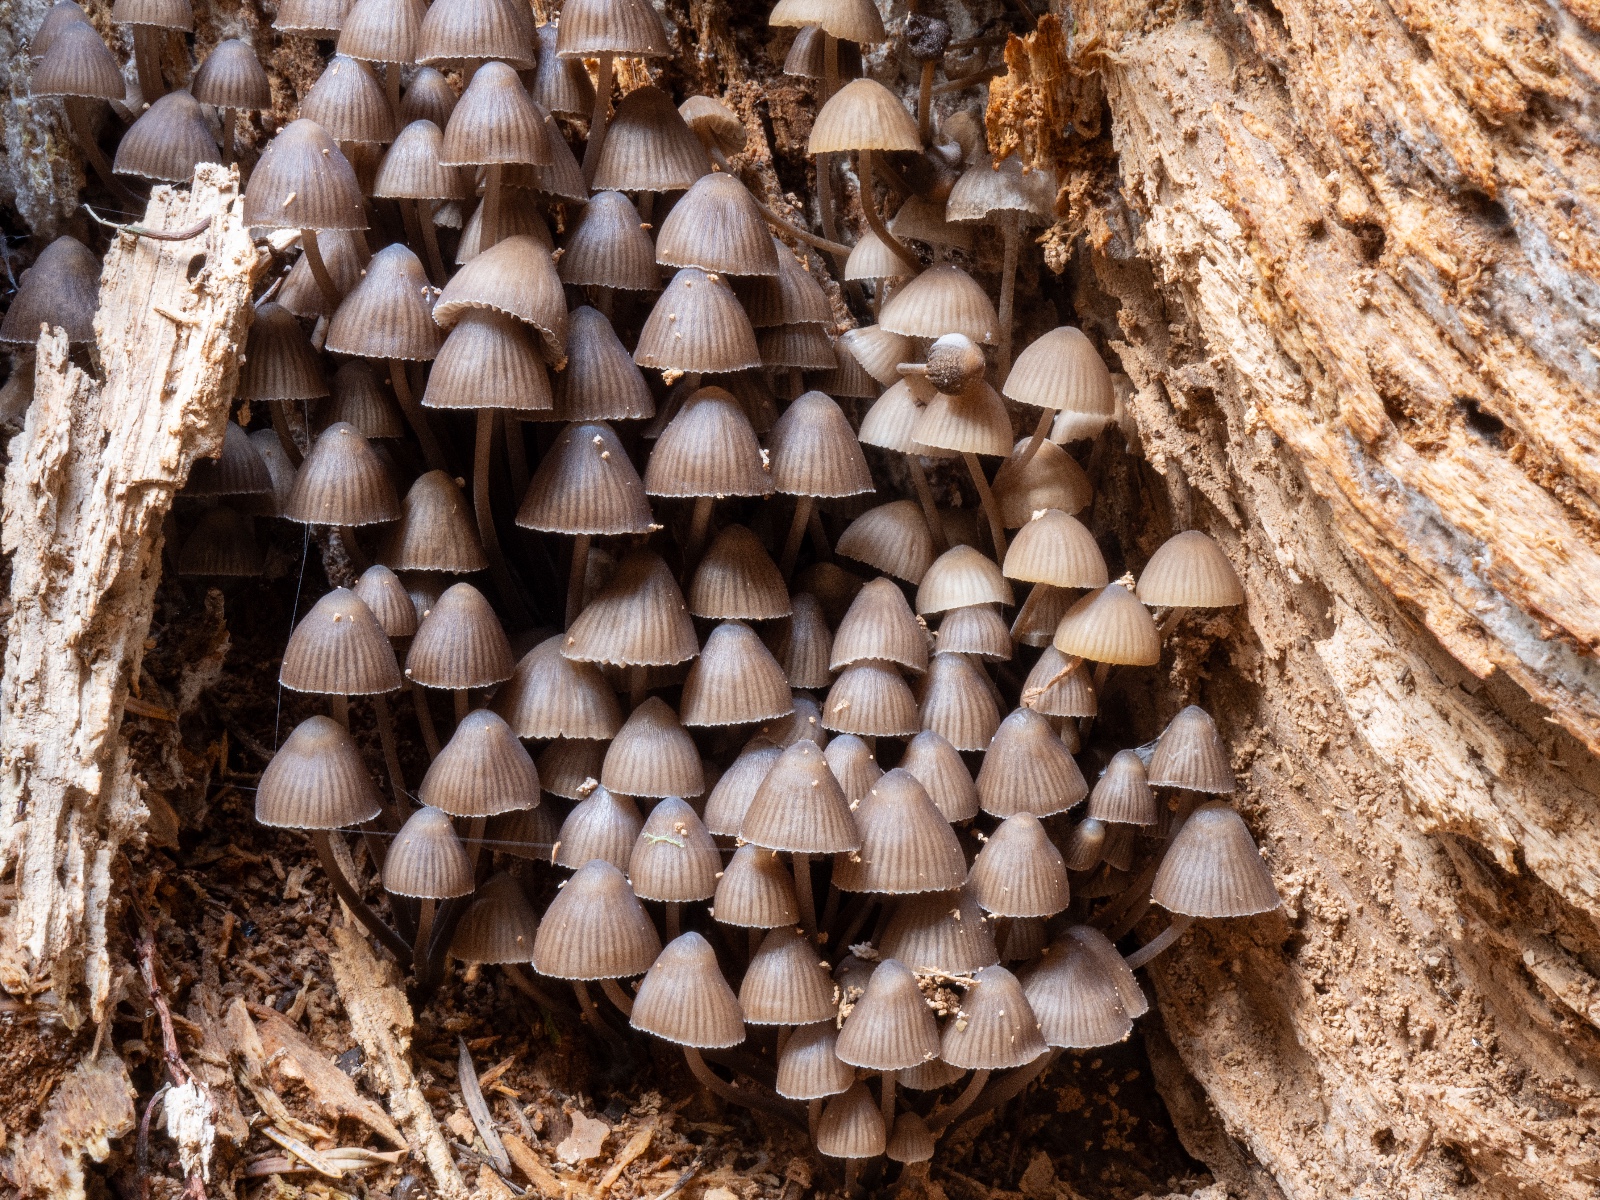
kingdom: Fungi
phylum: Basidiomycota
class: Agaricomycetes
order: Agaricales
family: Mycenaceae
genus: Mycena
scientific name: Mycena stipata
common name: stinkende huesvamp
